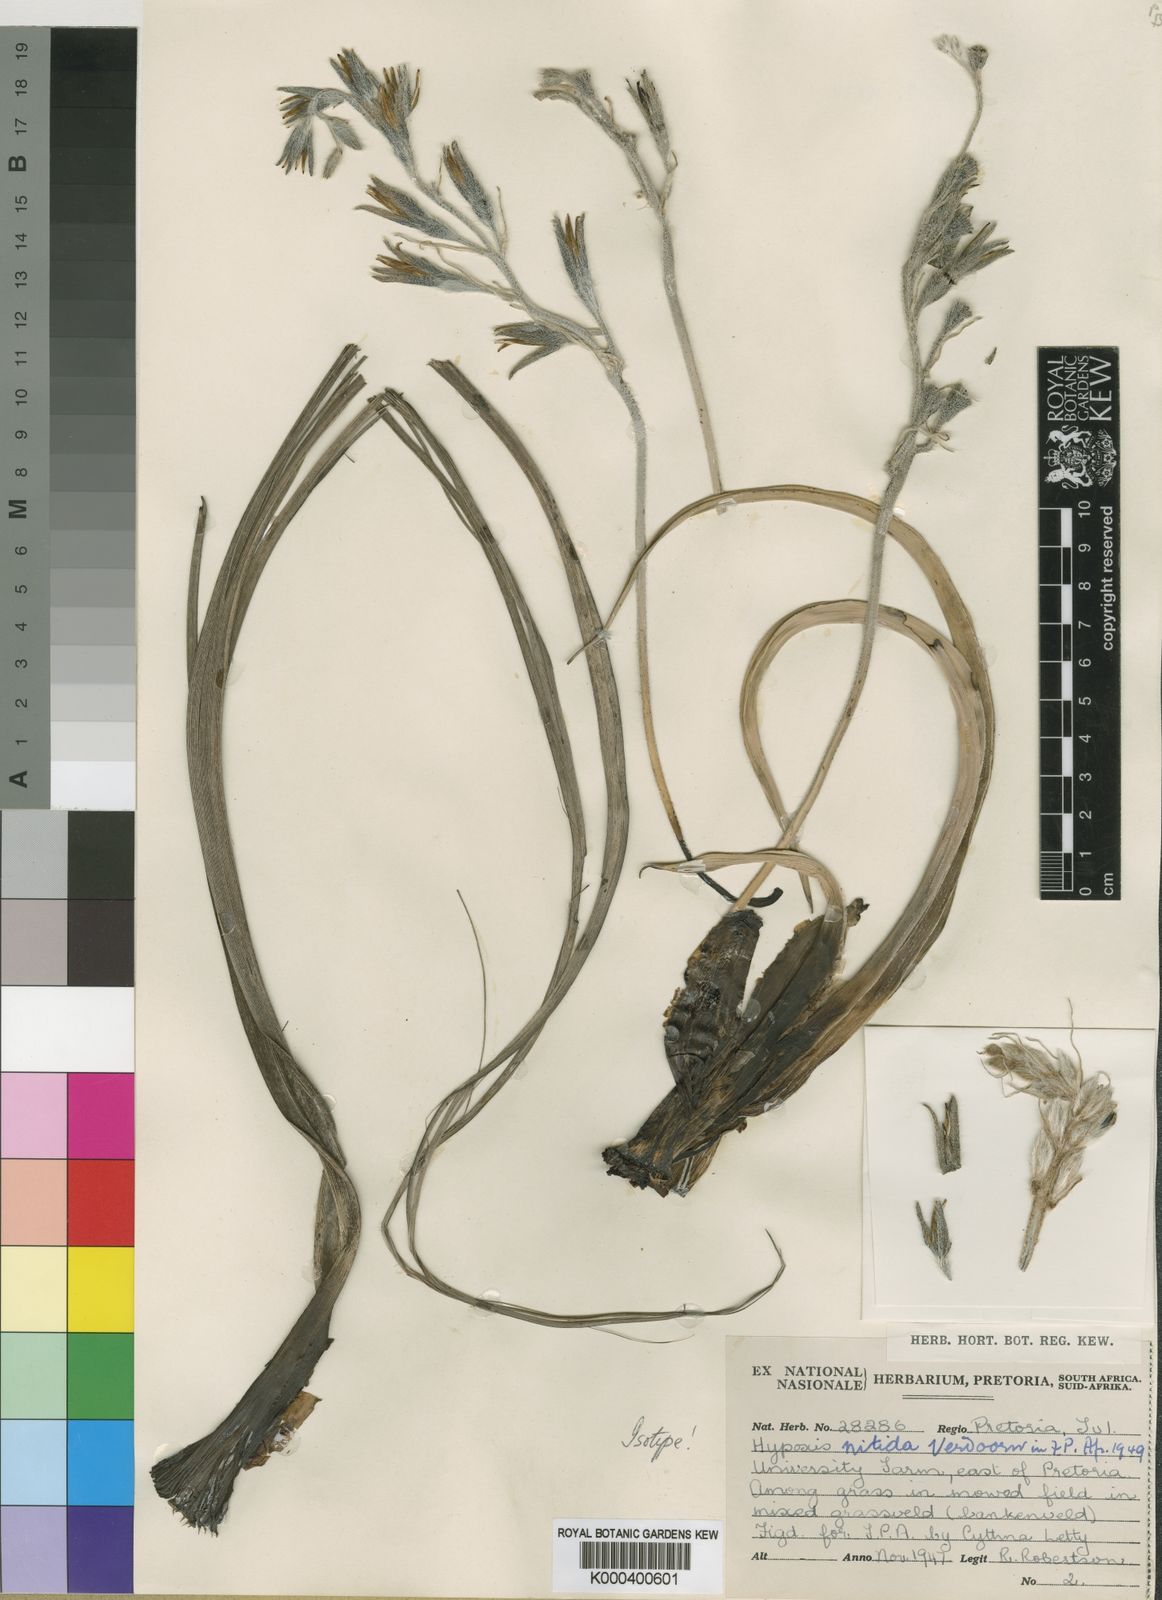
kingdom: Plantae
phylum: Tracheophyta
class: Liliopsida
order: Asparagales
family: Hypoxidaceae
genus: Hypoxis
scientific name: Hypoxis obtusa
